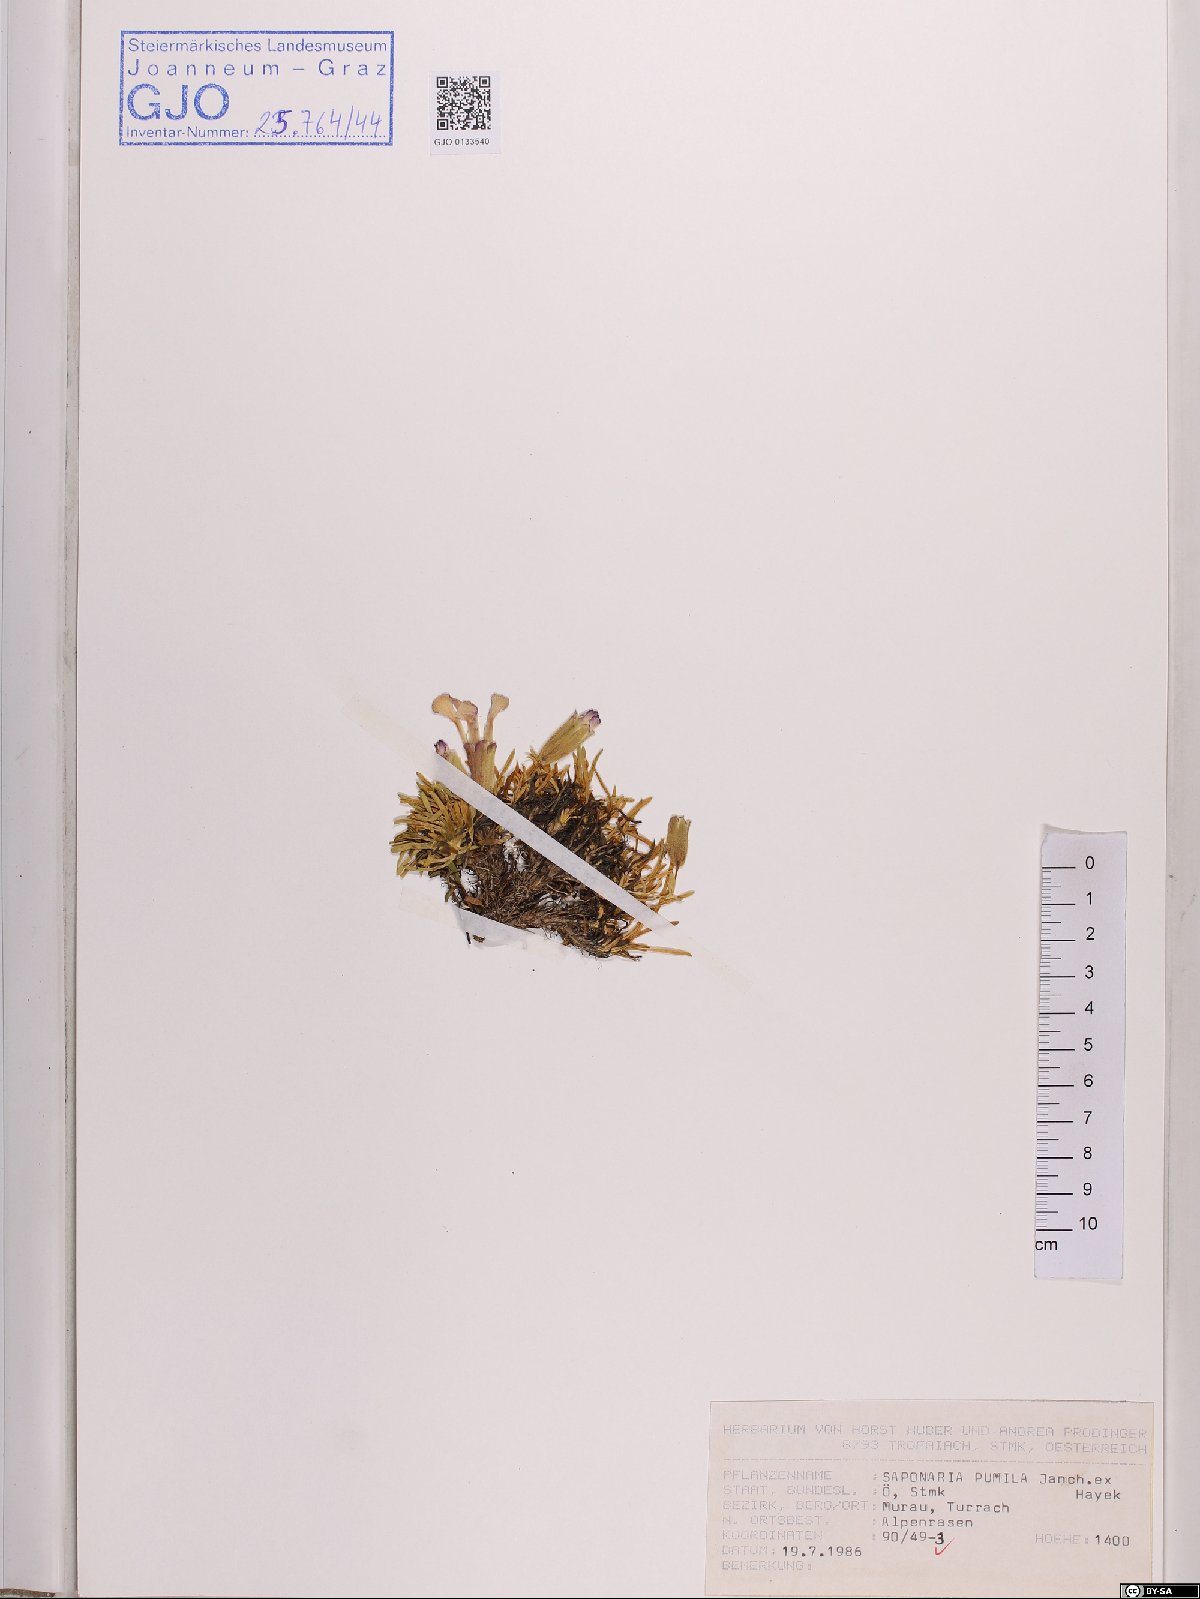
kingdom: Plantae
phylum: Tracheophyta
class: Magnoliopsida
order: Caryophyllales
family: Caryophyllaceae
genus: Saponaria
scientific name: Saponaria pumila
